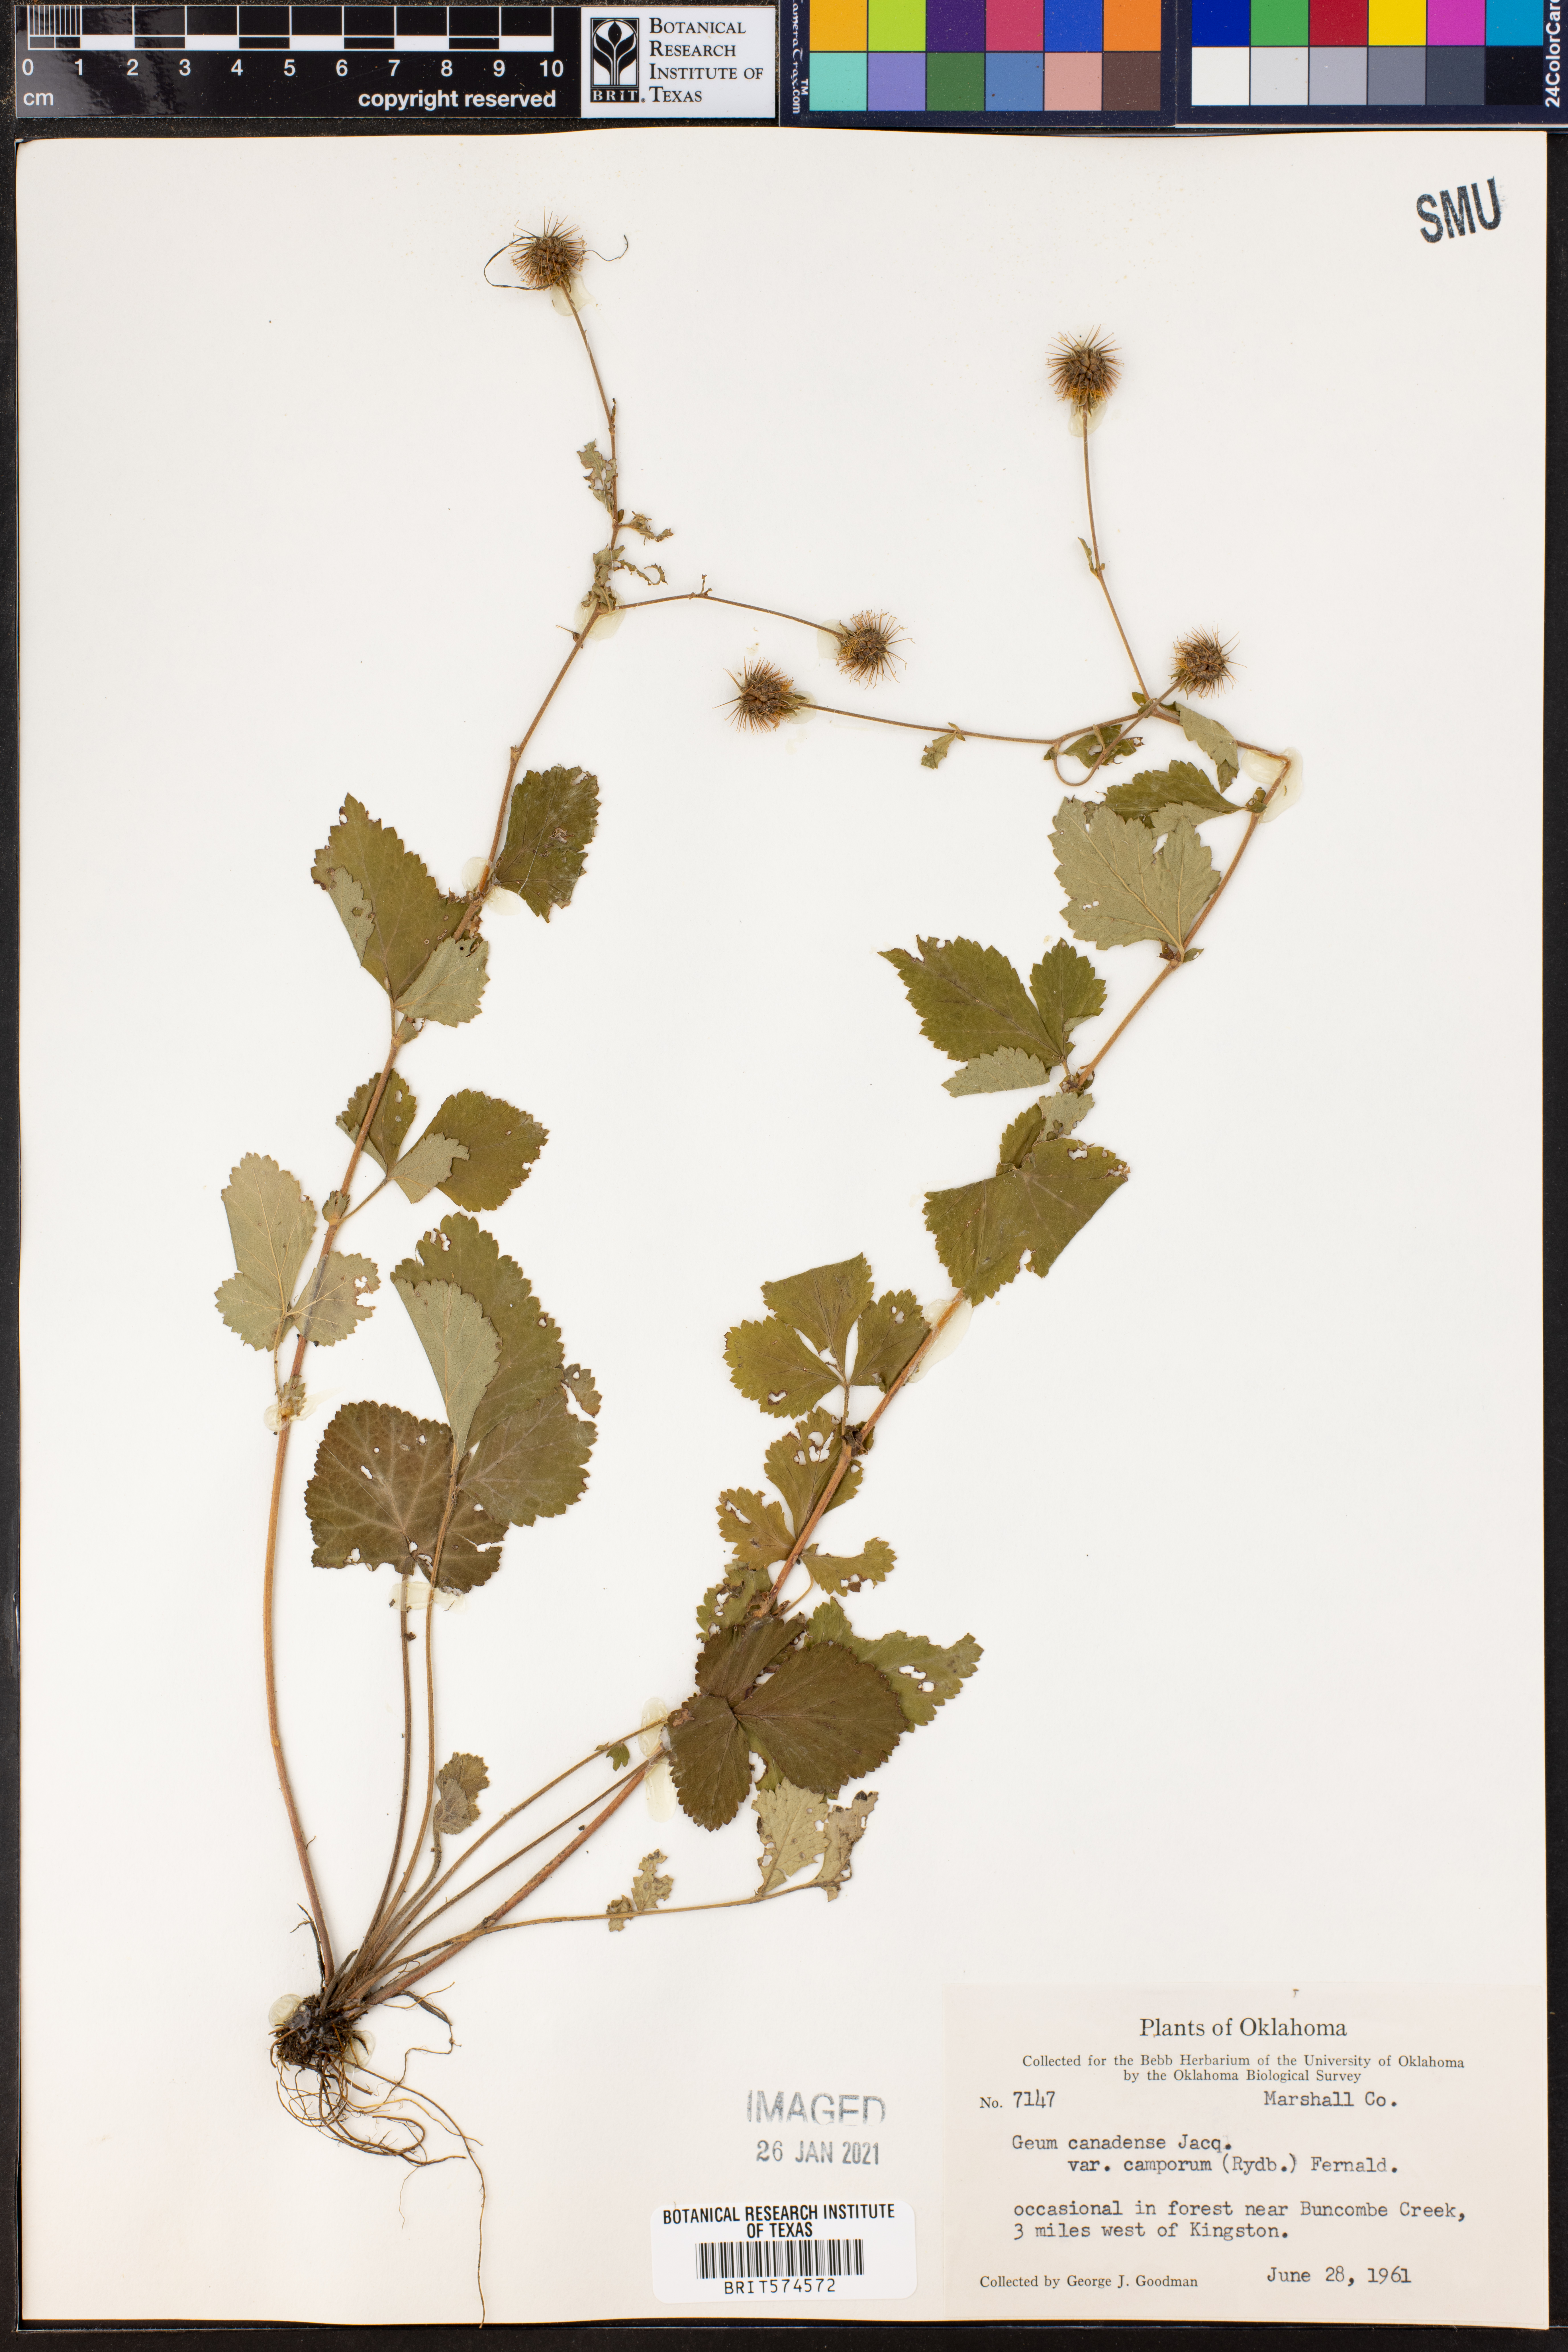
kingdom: Plantae
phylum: Tracheophyta
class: Magnoliopsida
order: Rosales
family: Rosaceae
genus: Geum
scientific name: Geum canadense
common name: White avens
